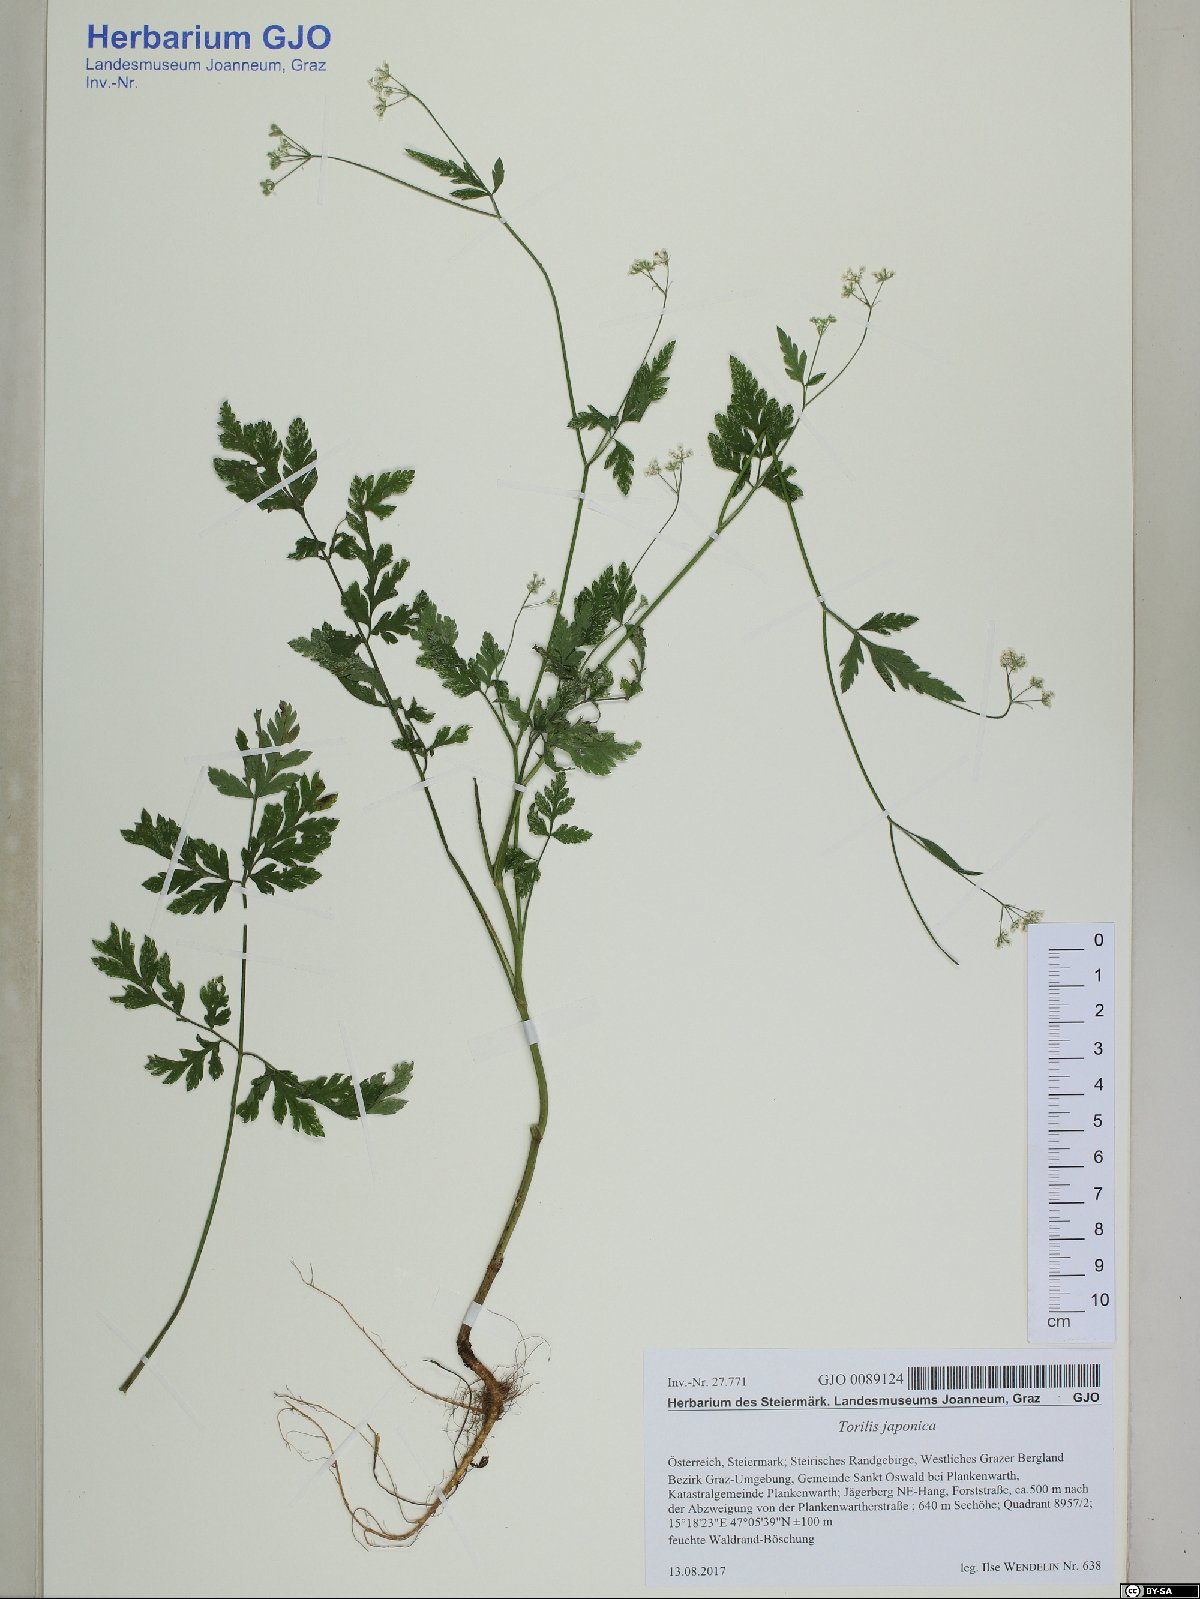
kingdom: Plantae
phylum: Tracheophyta
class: Magnoliopsida
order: Apiales
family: Apiaceae
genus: Torilis
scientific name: Torilis japonica
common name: Upright hedge-parsley
